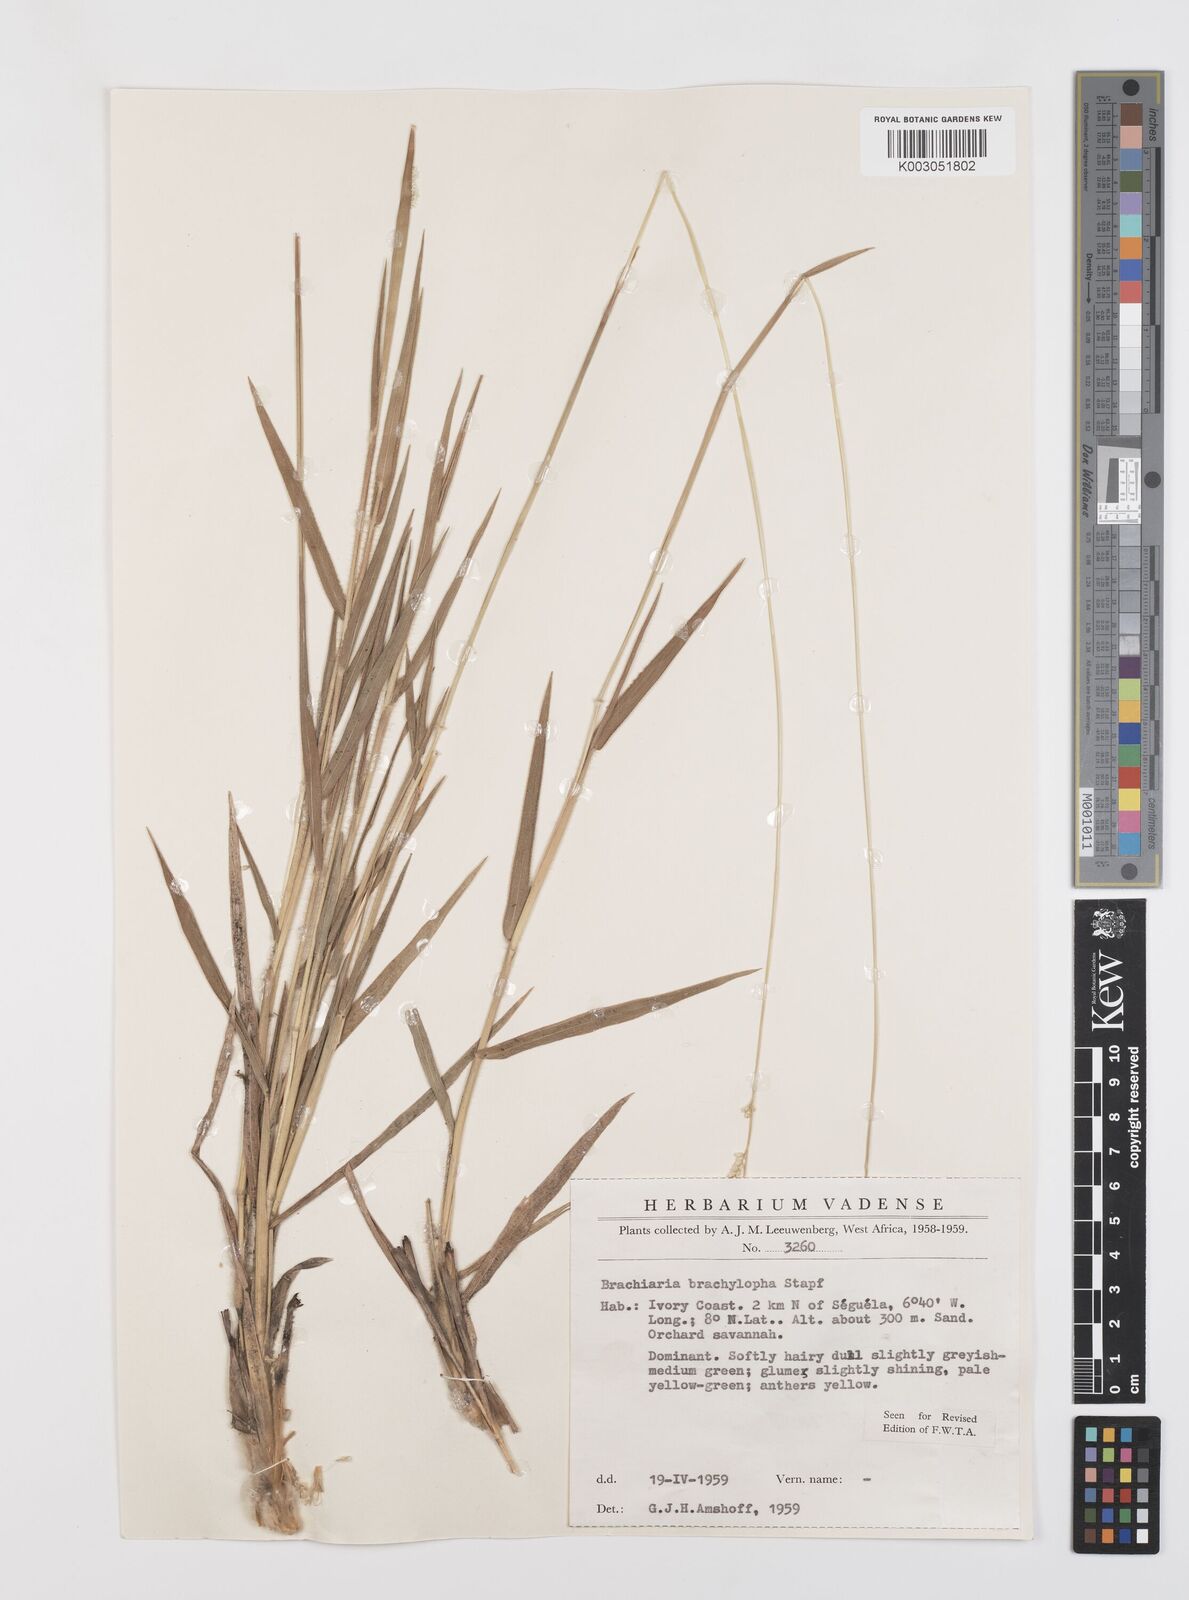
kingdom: Plantae
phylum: Tracheophyta
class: Liliopsida
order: Poales
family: Poaceae
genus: Urochloa
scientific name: Urochloa serrata
